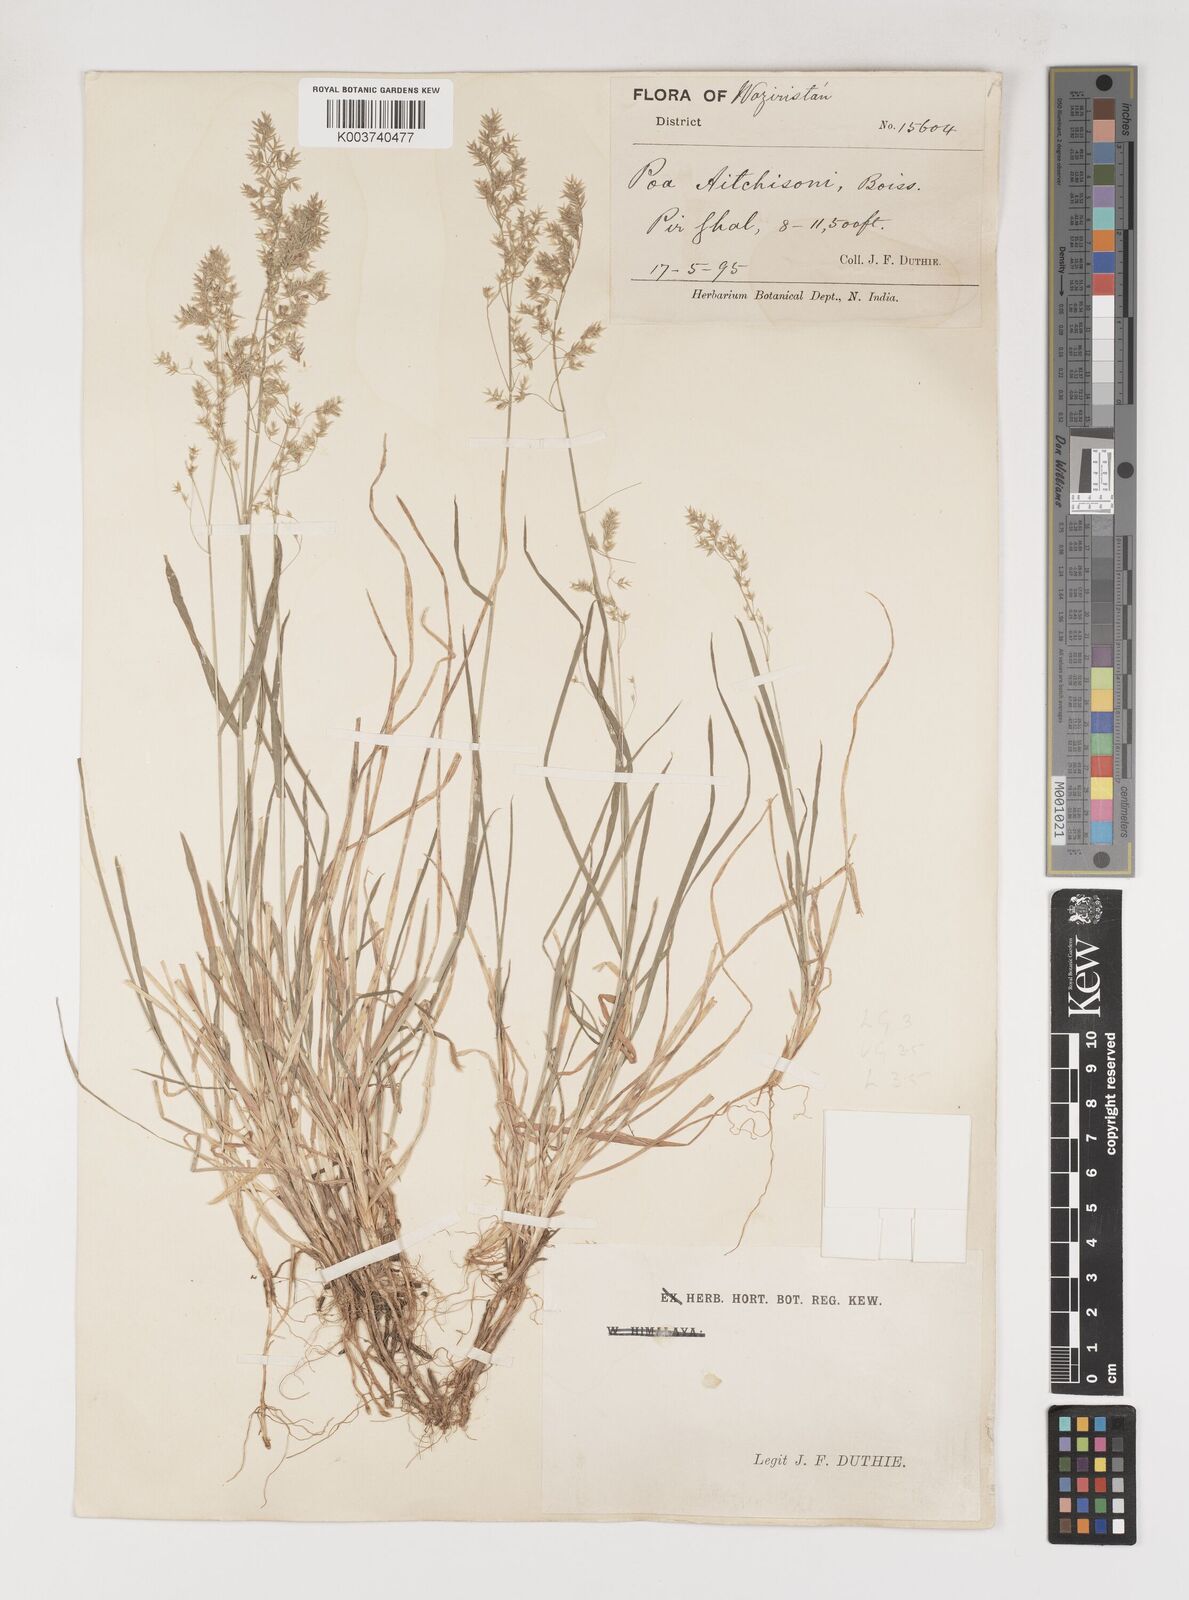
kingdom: Plantae
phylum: Tracheophyta
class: Liliopsida
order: Poales
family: Poaceae
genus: Poa
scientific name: Poa aitchisonii
